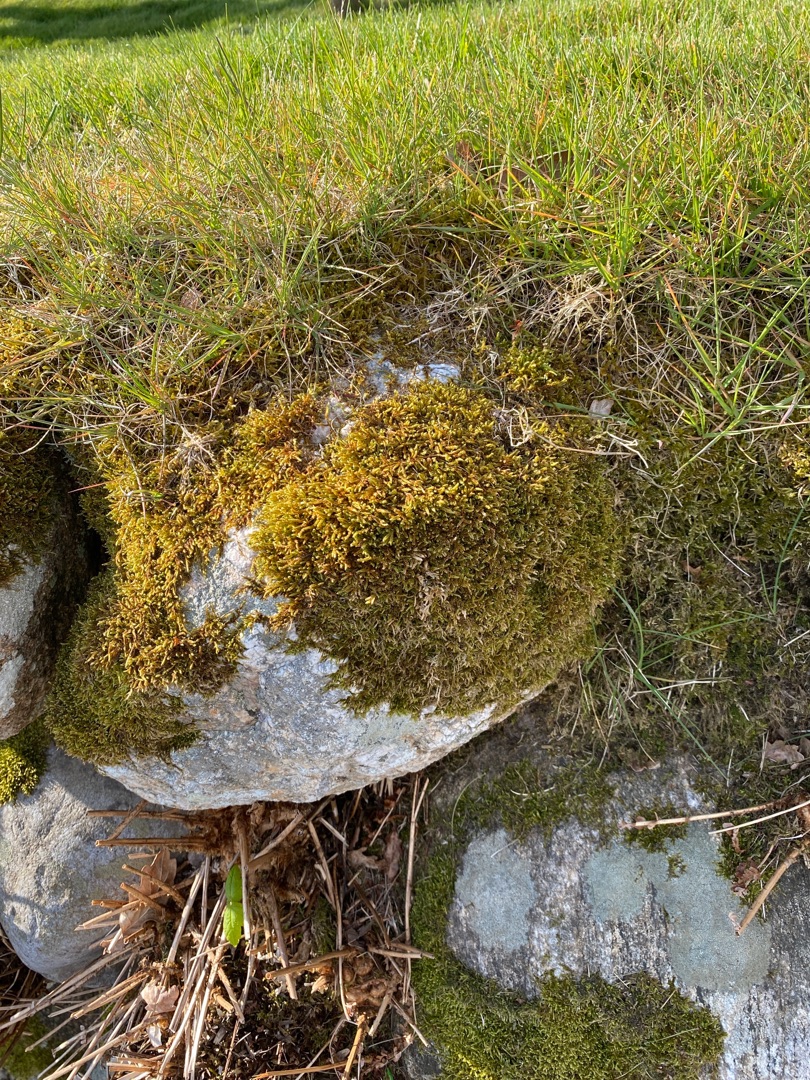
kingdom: Plantae
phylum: Bryophyta
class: Bryopsida
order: Hypnales
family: Hypnaceae
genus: Hypnum
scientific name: Hypnum cupressiforme
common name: Almindelig cypresmos
